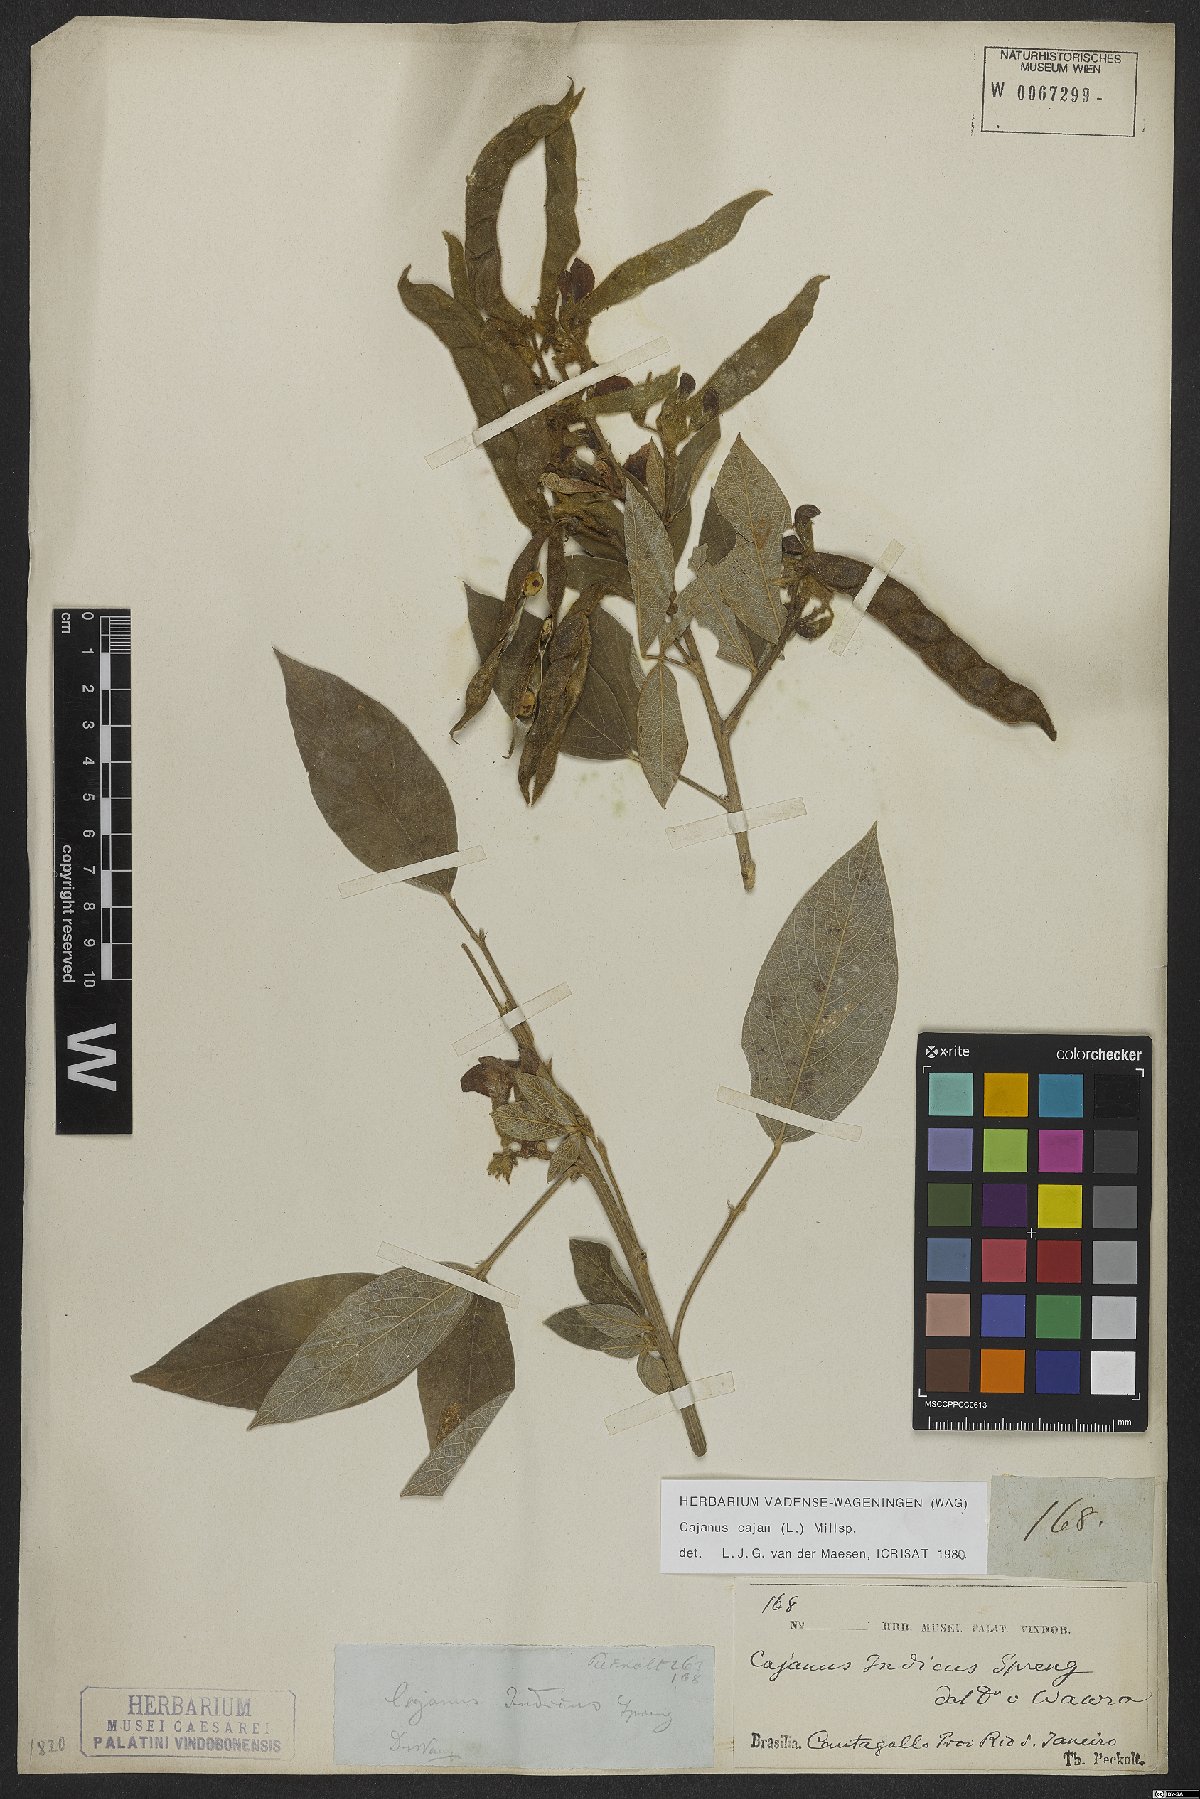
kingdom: Plantae
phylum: Tracheophyta
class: Magnoliopsida
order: Fabales
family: Fabaceae
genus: Cajanus
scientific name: Cajanus cajan
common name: Pigeonpea
